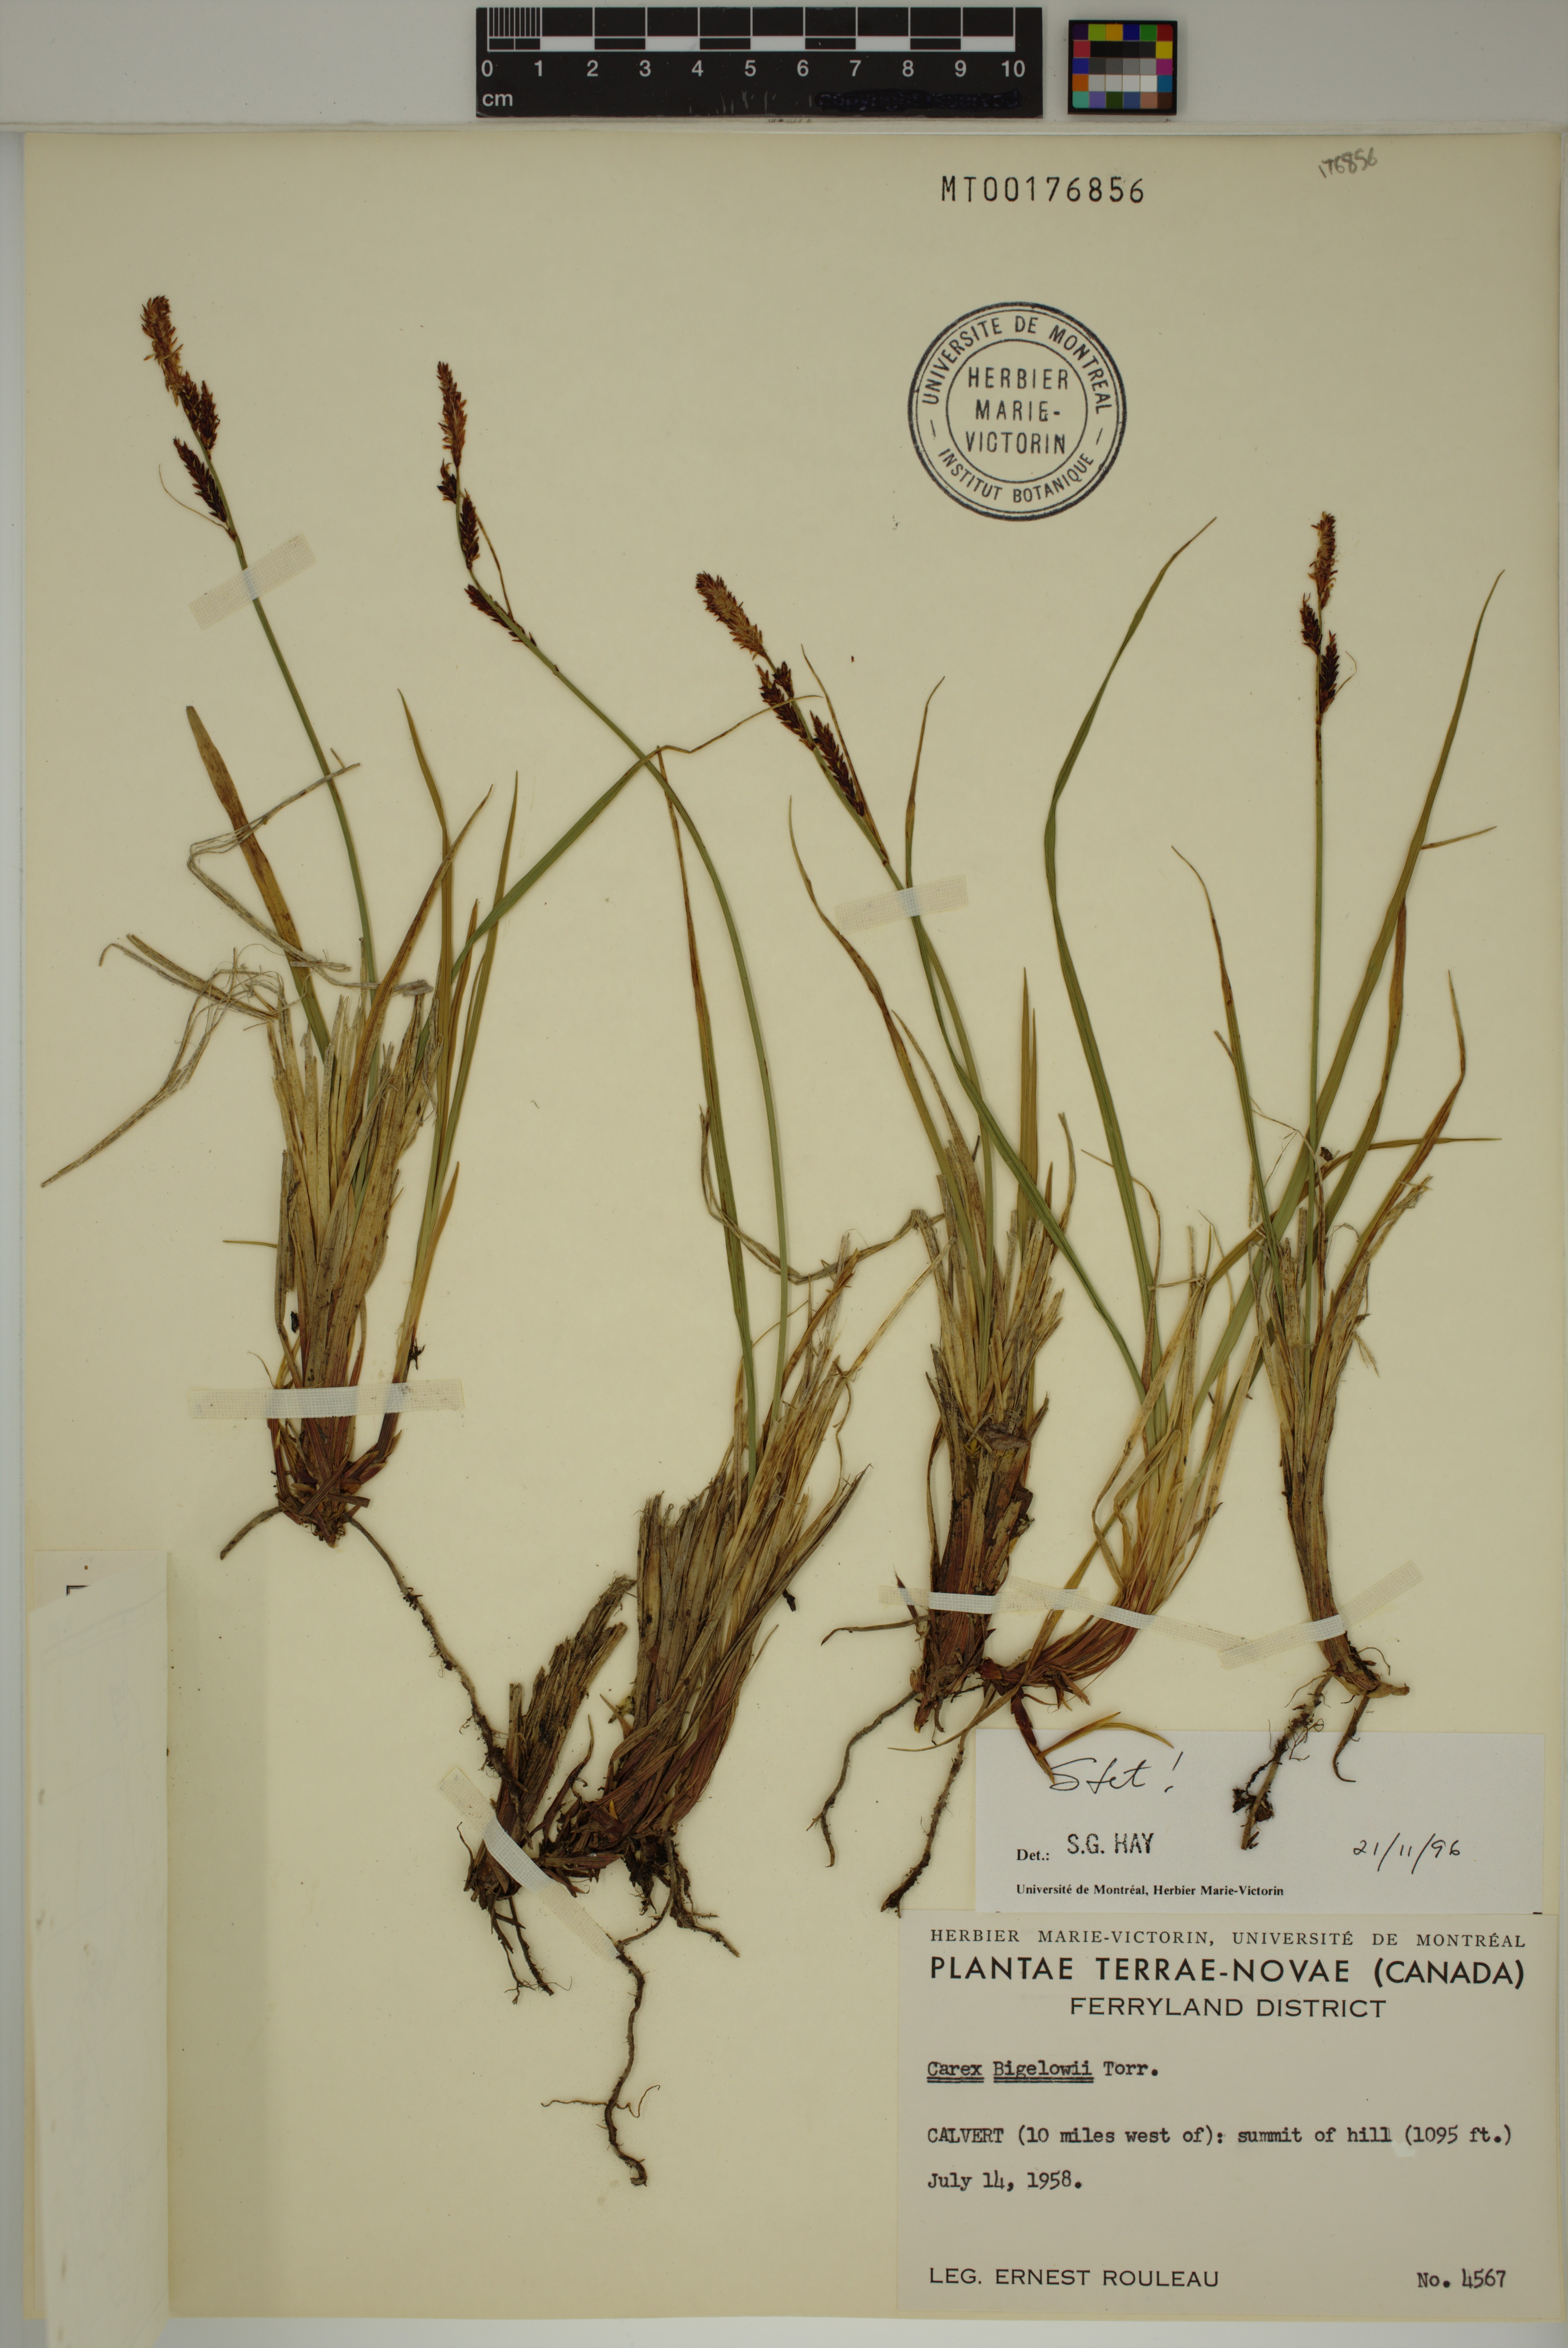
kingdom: Plantae
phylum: Tracheophyta
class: Liliopsida
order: Poales
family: Cyperaceae
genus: Carex
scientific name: Carex bigelowii
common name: Stiff sedge
